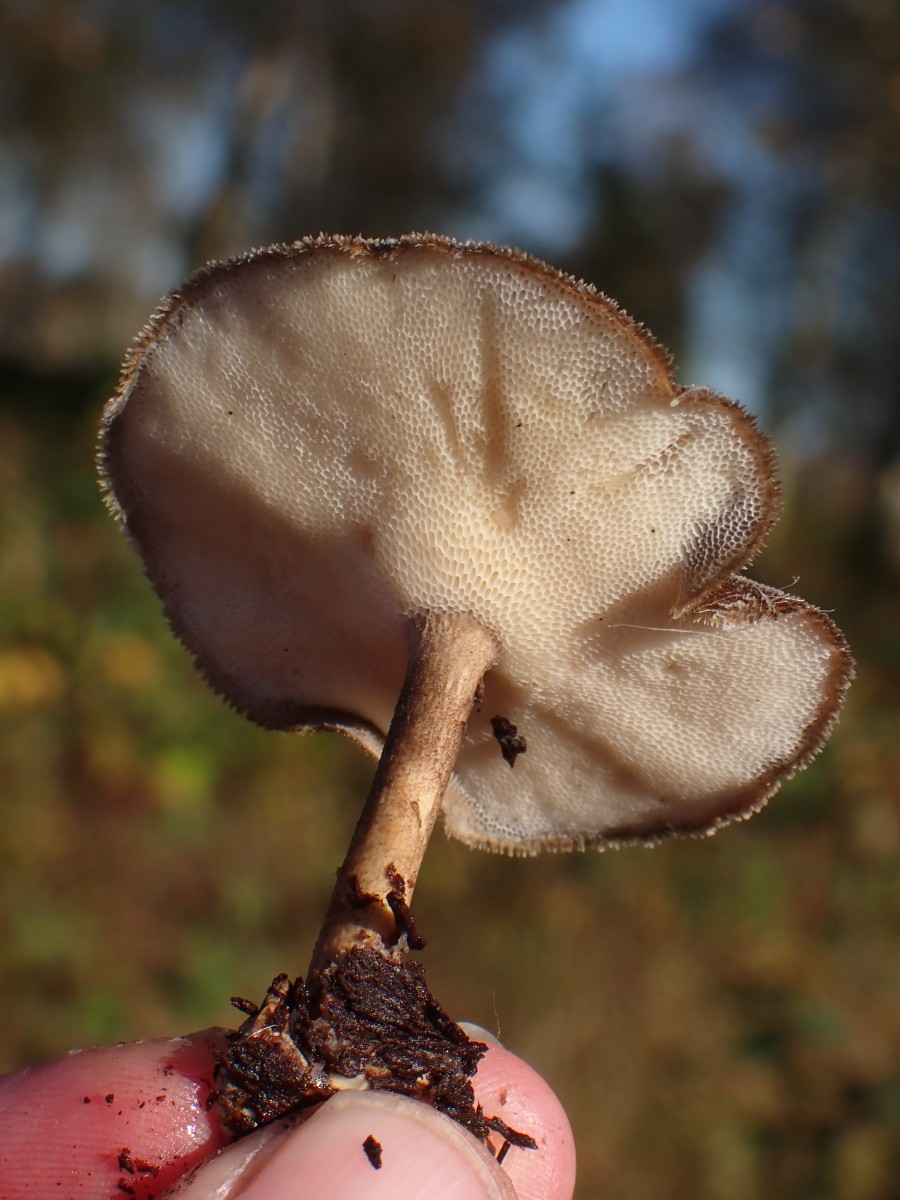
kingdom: Fungi
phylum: Basidiomycota
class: Agaricomycetes
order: Polyporales
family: Polyporaceae
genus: Lentinus
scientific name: Lentinus brumalis
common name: vinter-stilkporesvamp
